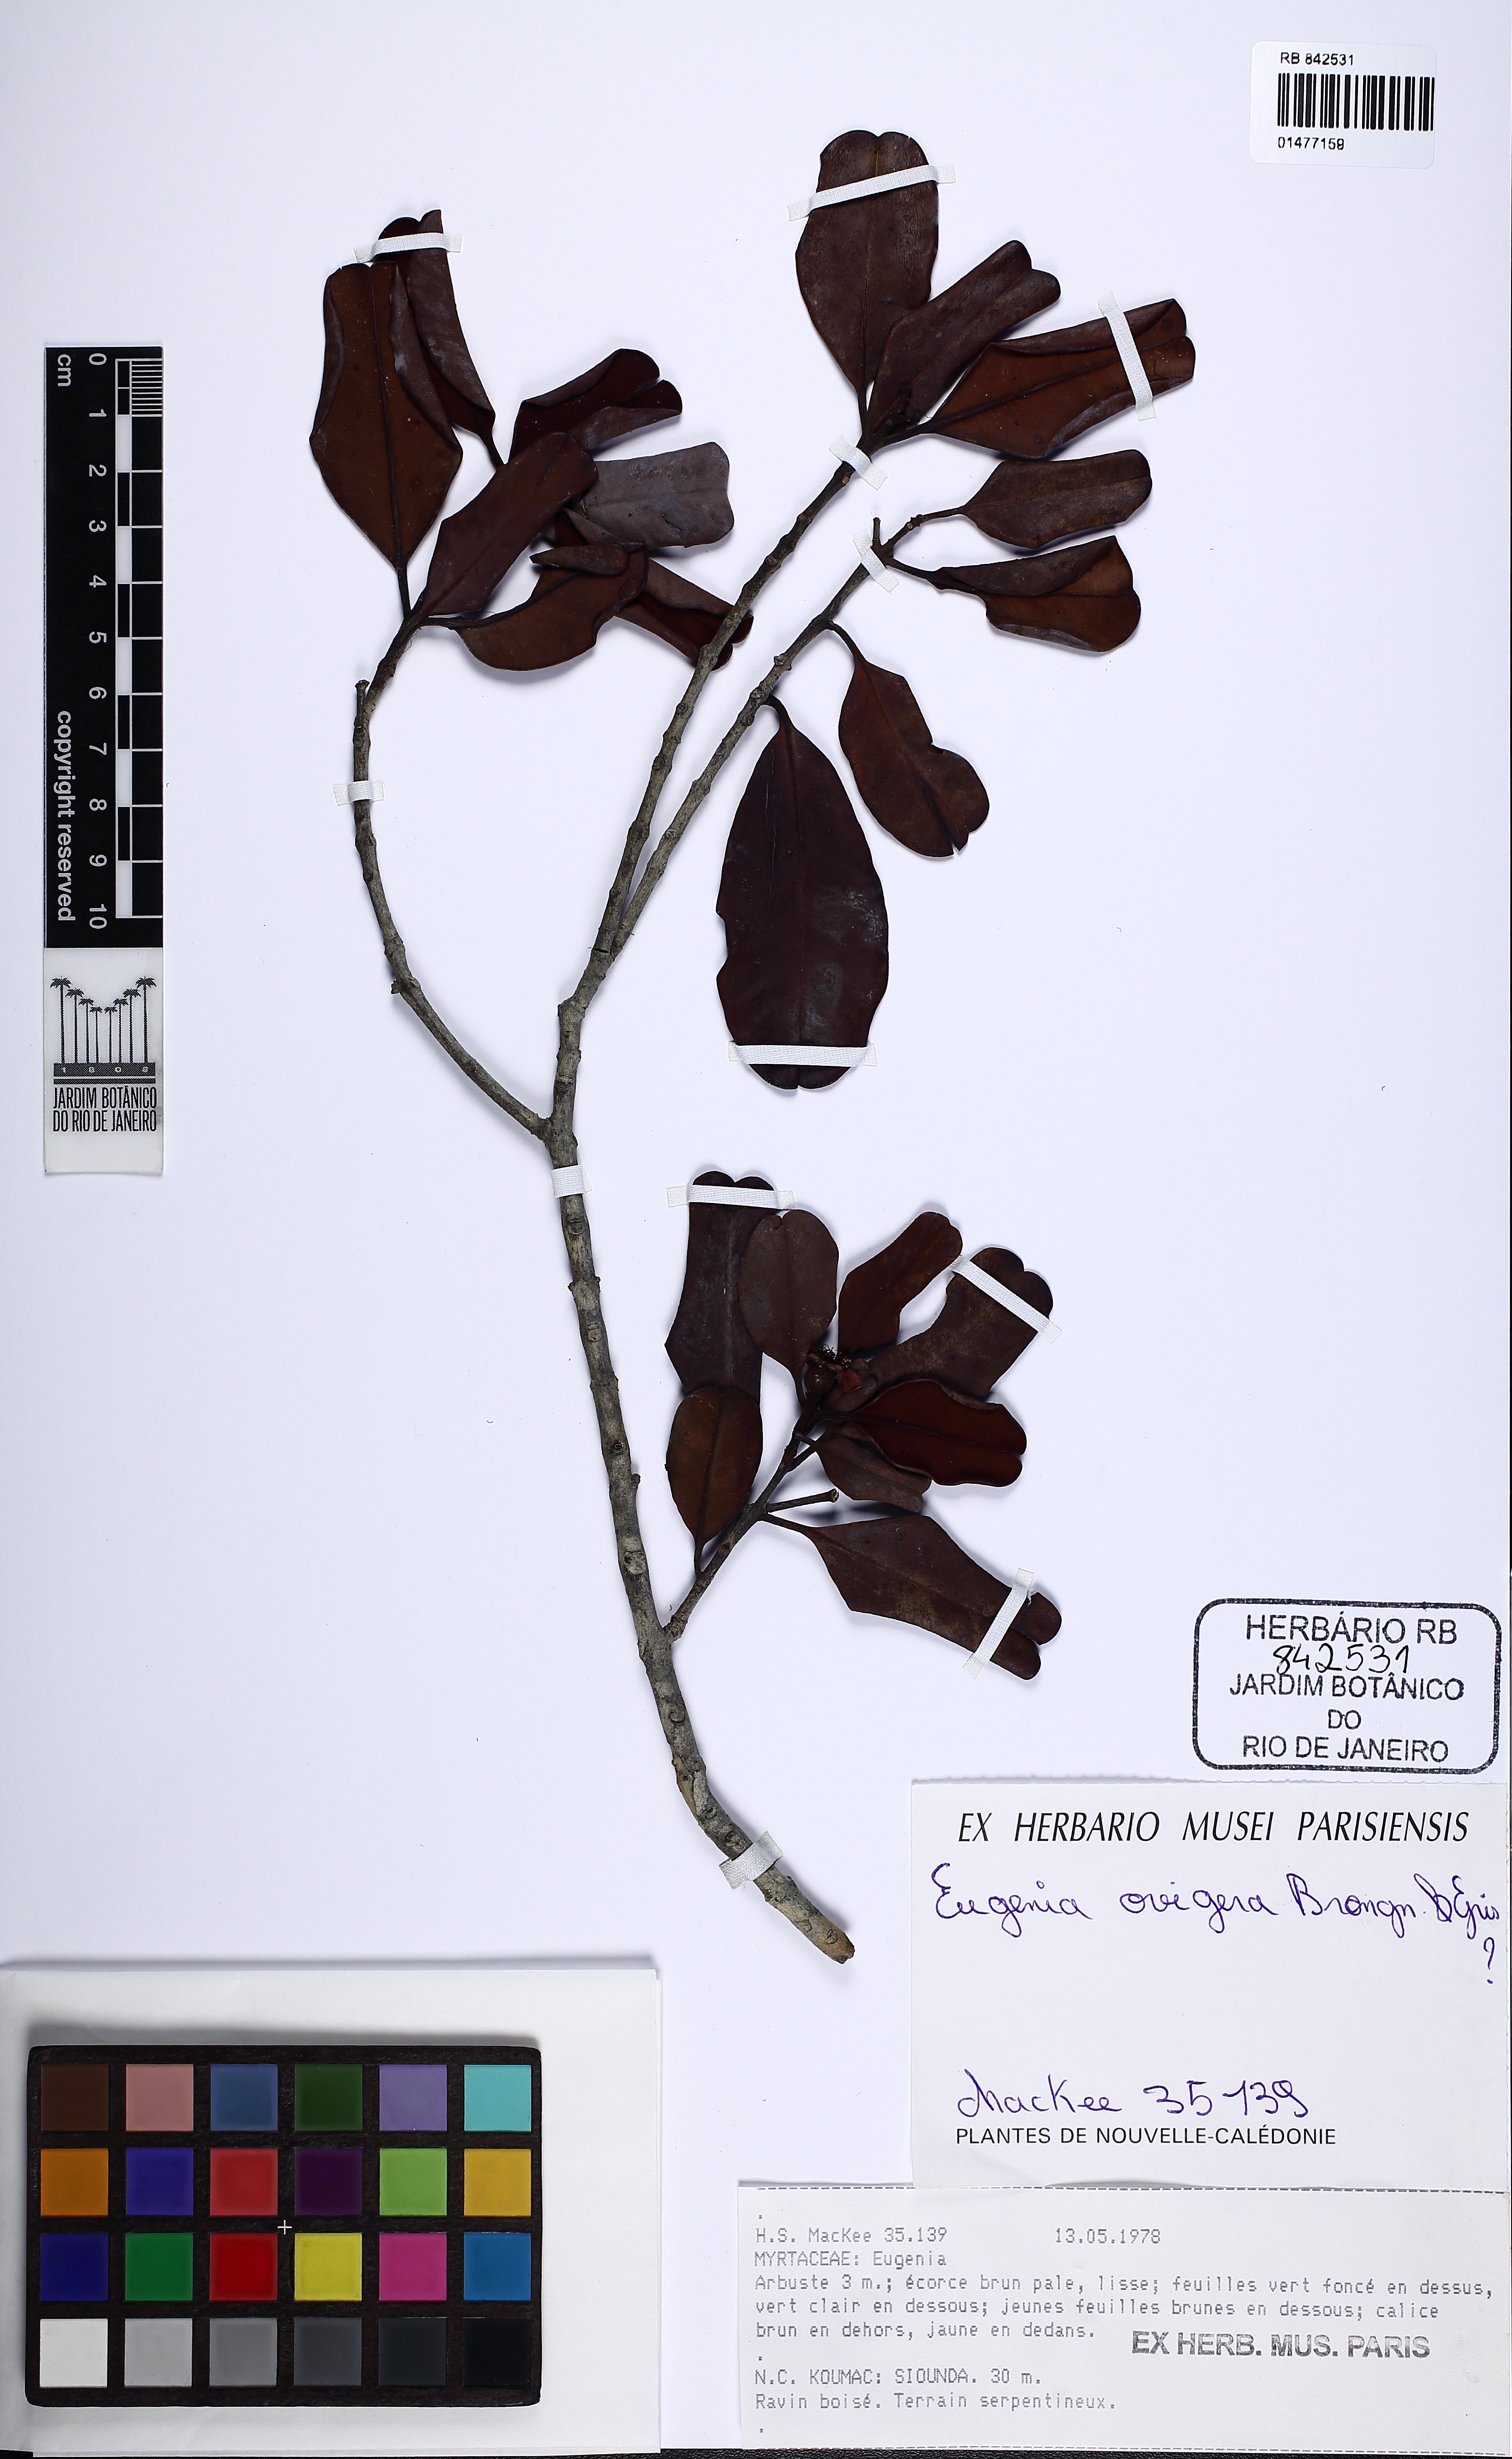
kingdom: Plantae
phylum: Tracheophyta
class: Magnoliopsida
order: Myrtales
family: Myrtaceae
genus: Stereocaryum
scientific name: Stereocaryum ovigerum
